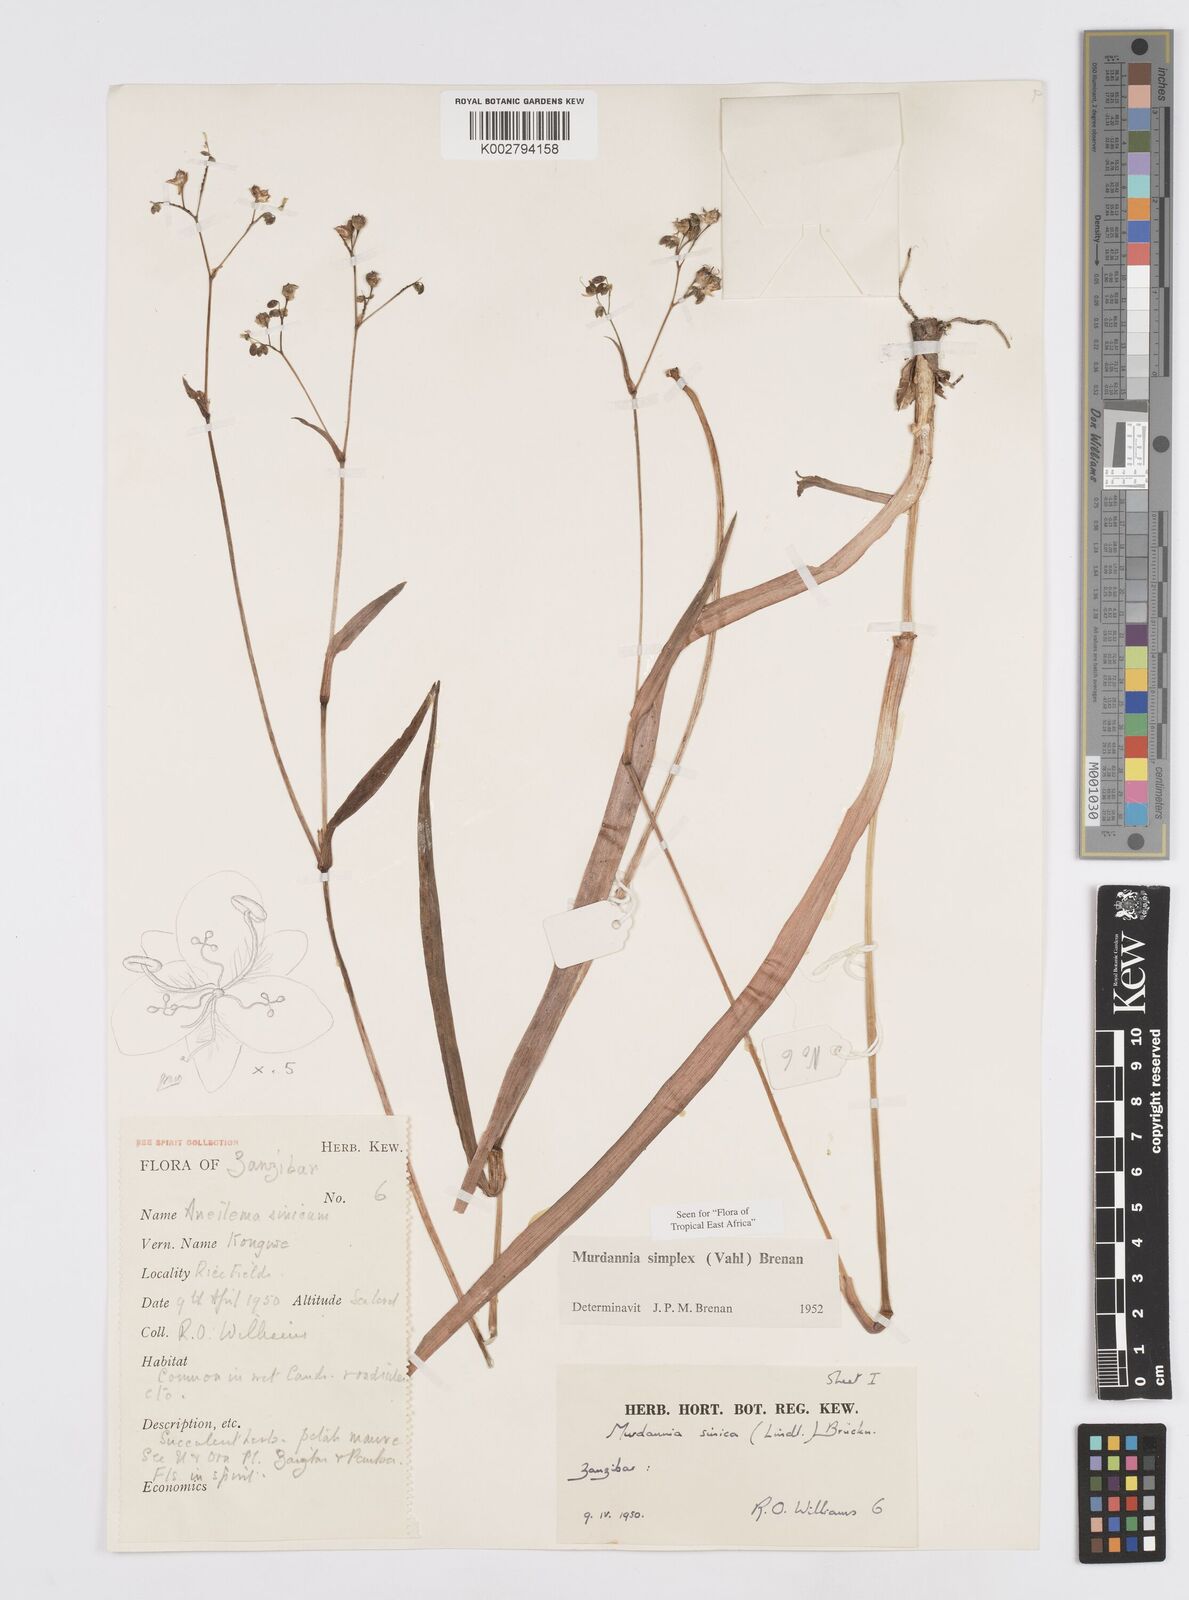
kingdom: Plantae
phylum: Tracheophyta
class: Liliopsida
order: Commelinales
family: Commelinaceae
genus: Murdannia
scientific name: Murdannia simplex
